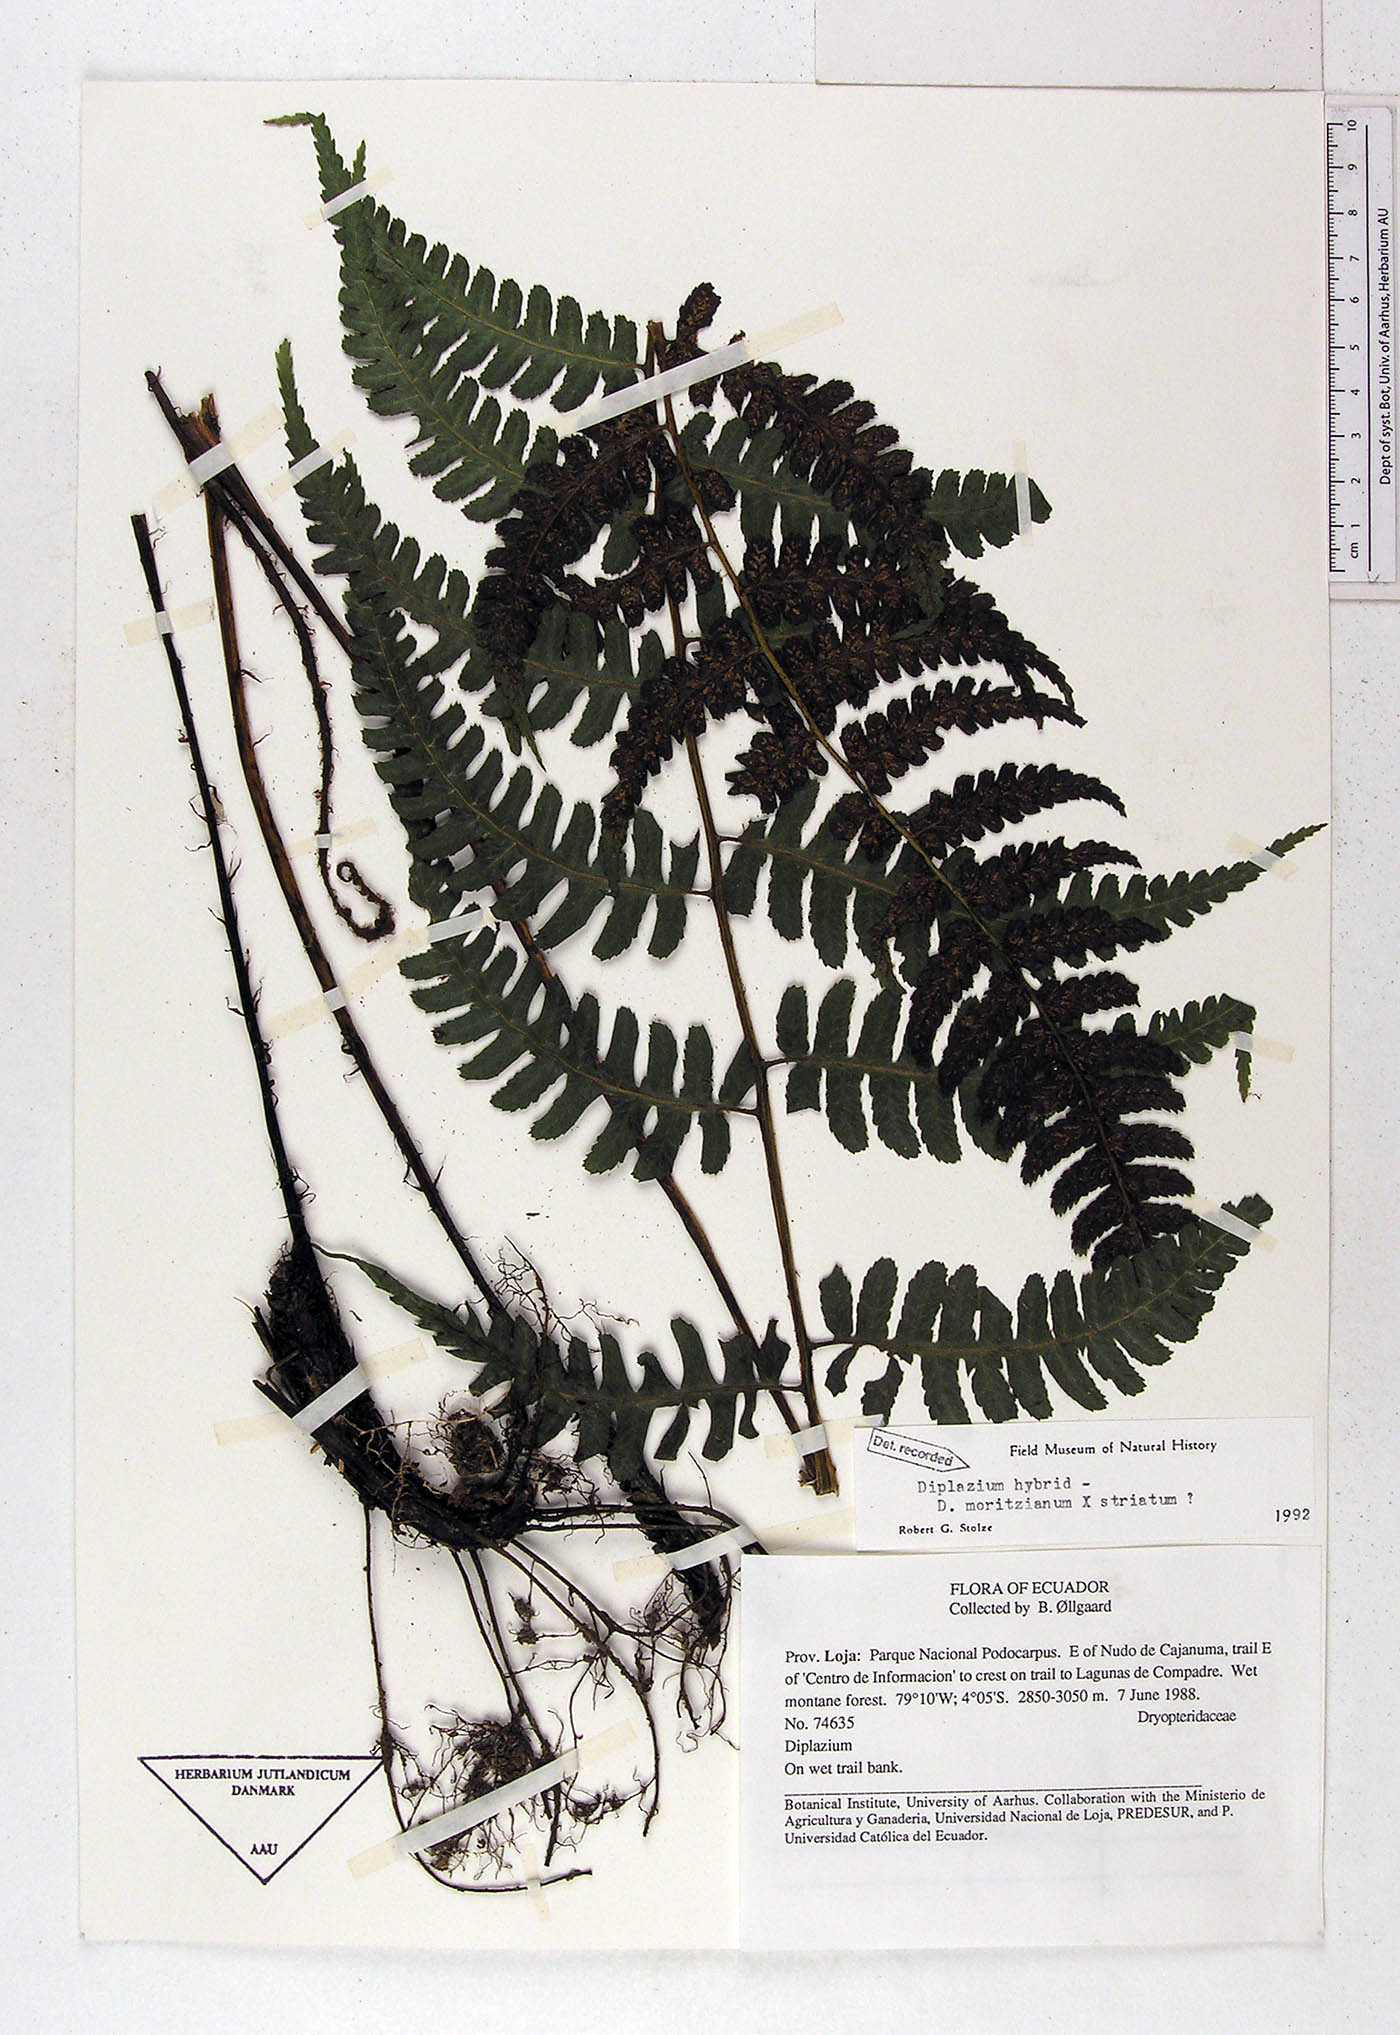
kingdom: Plantae
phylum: Tracheophyta
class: Polypodiopsida
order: Polypodiales
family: Athyriaceae
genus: Diplazium
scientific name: Diplazium
